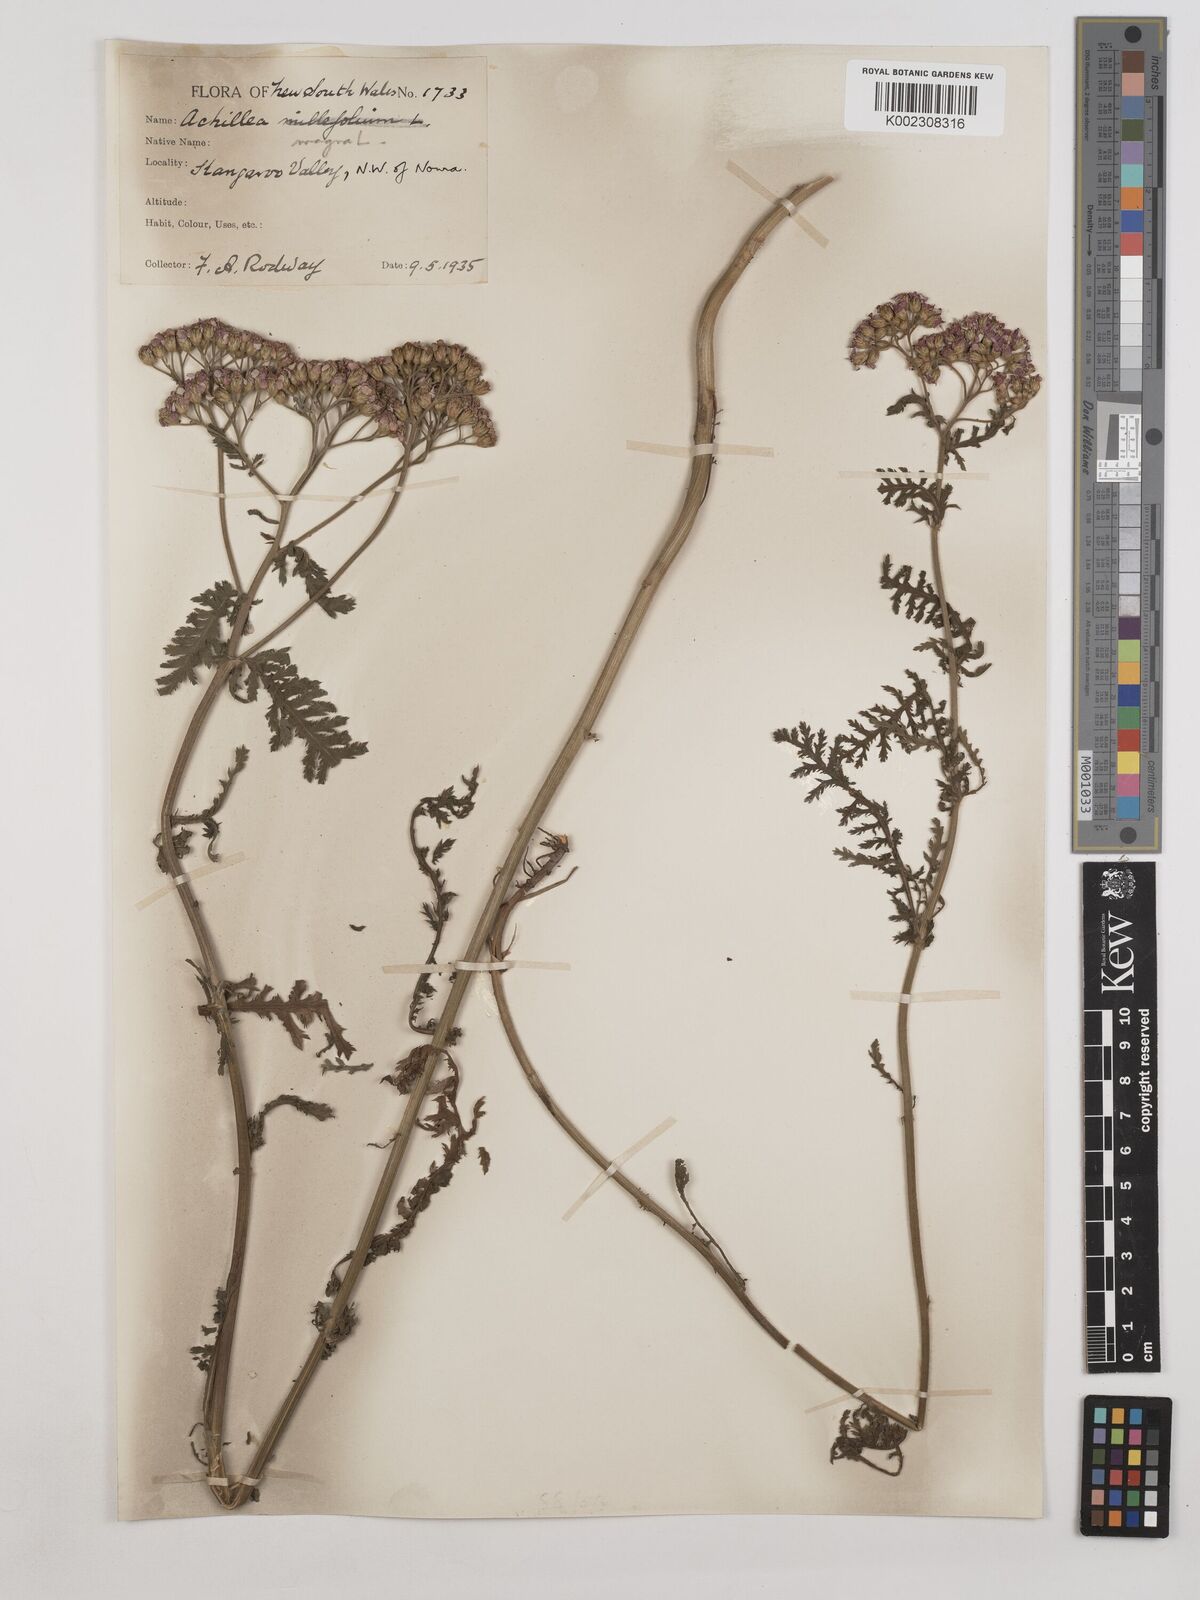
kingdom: Plantae
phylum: Tracheophyta
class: Magnoliopsida
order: Asterales
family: Asteraceae
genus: Achillea
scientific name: Achillea millefolium
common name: Yarrow
